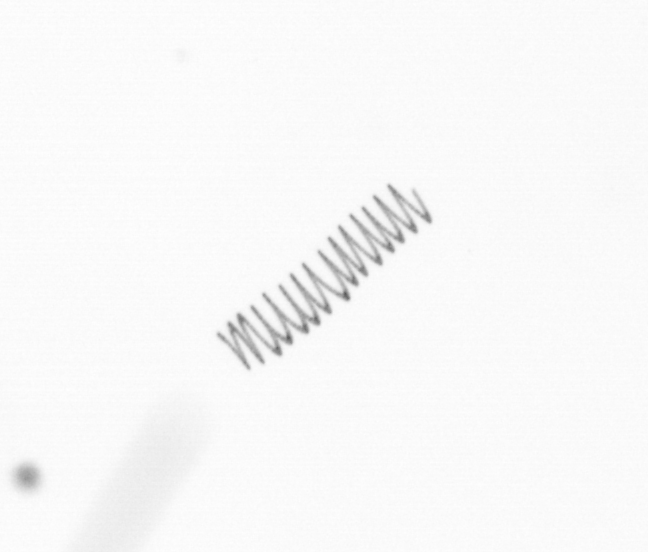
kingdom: Chromista
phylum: Ochrophyta
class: Bacillariophyceae
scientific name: Bacillariophyceae
